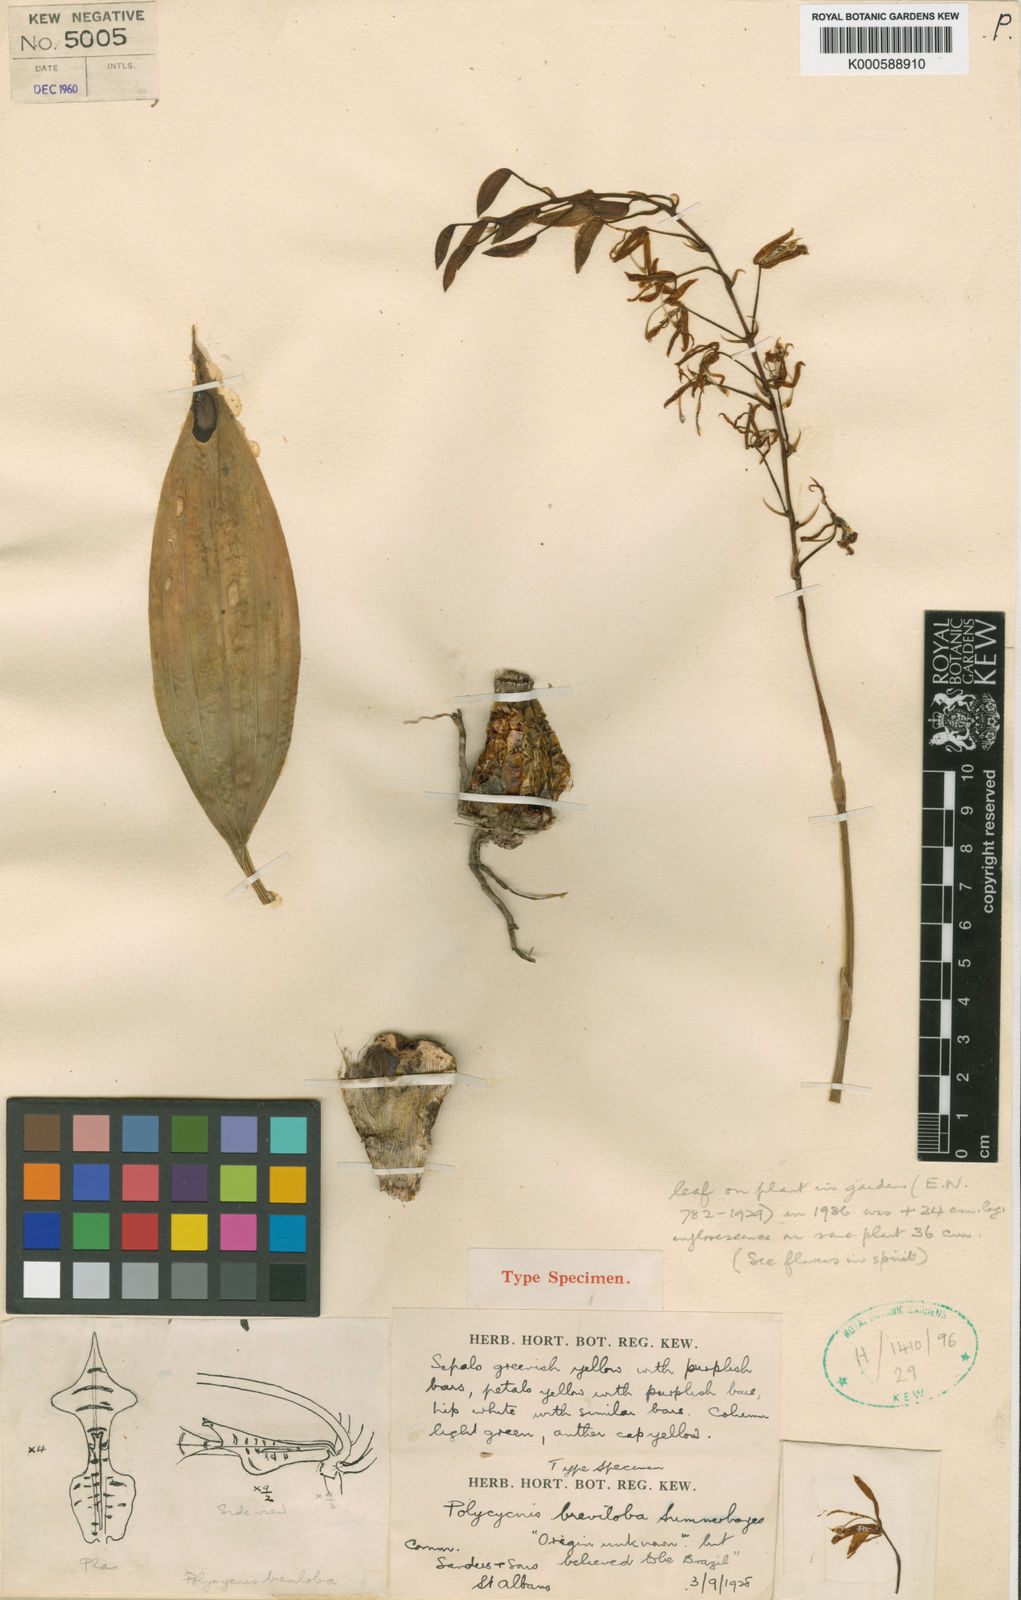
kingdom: Plantae
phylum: Tracheophyta
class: Liliopsida
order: Asparagales
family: Orchidaceae
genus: Lueckelia
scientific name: Lueckelia breviloba
